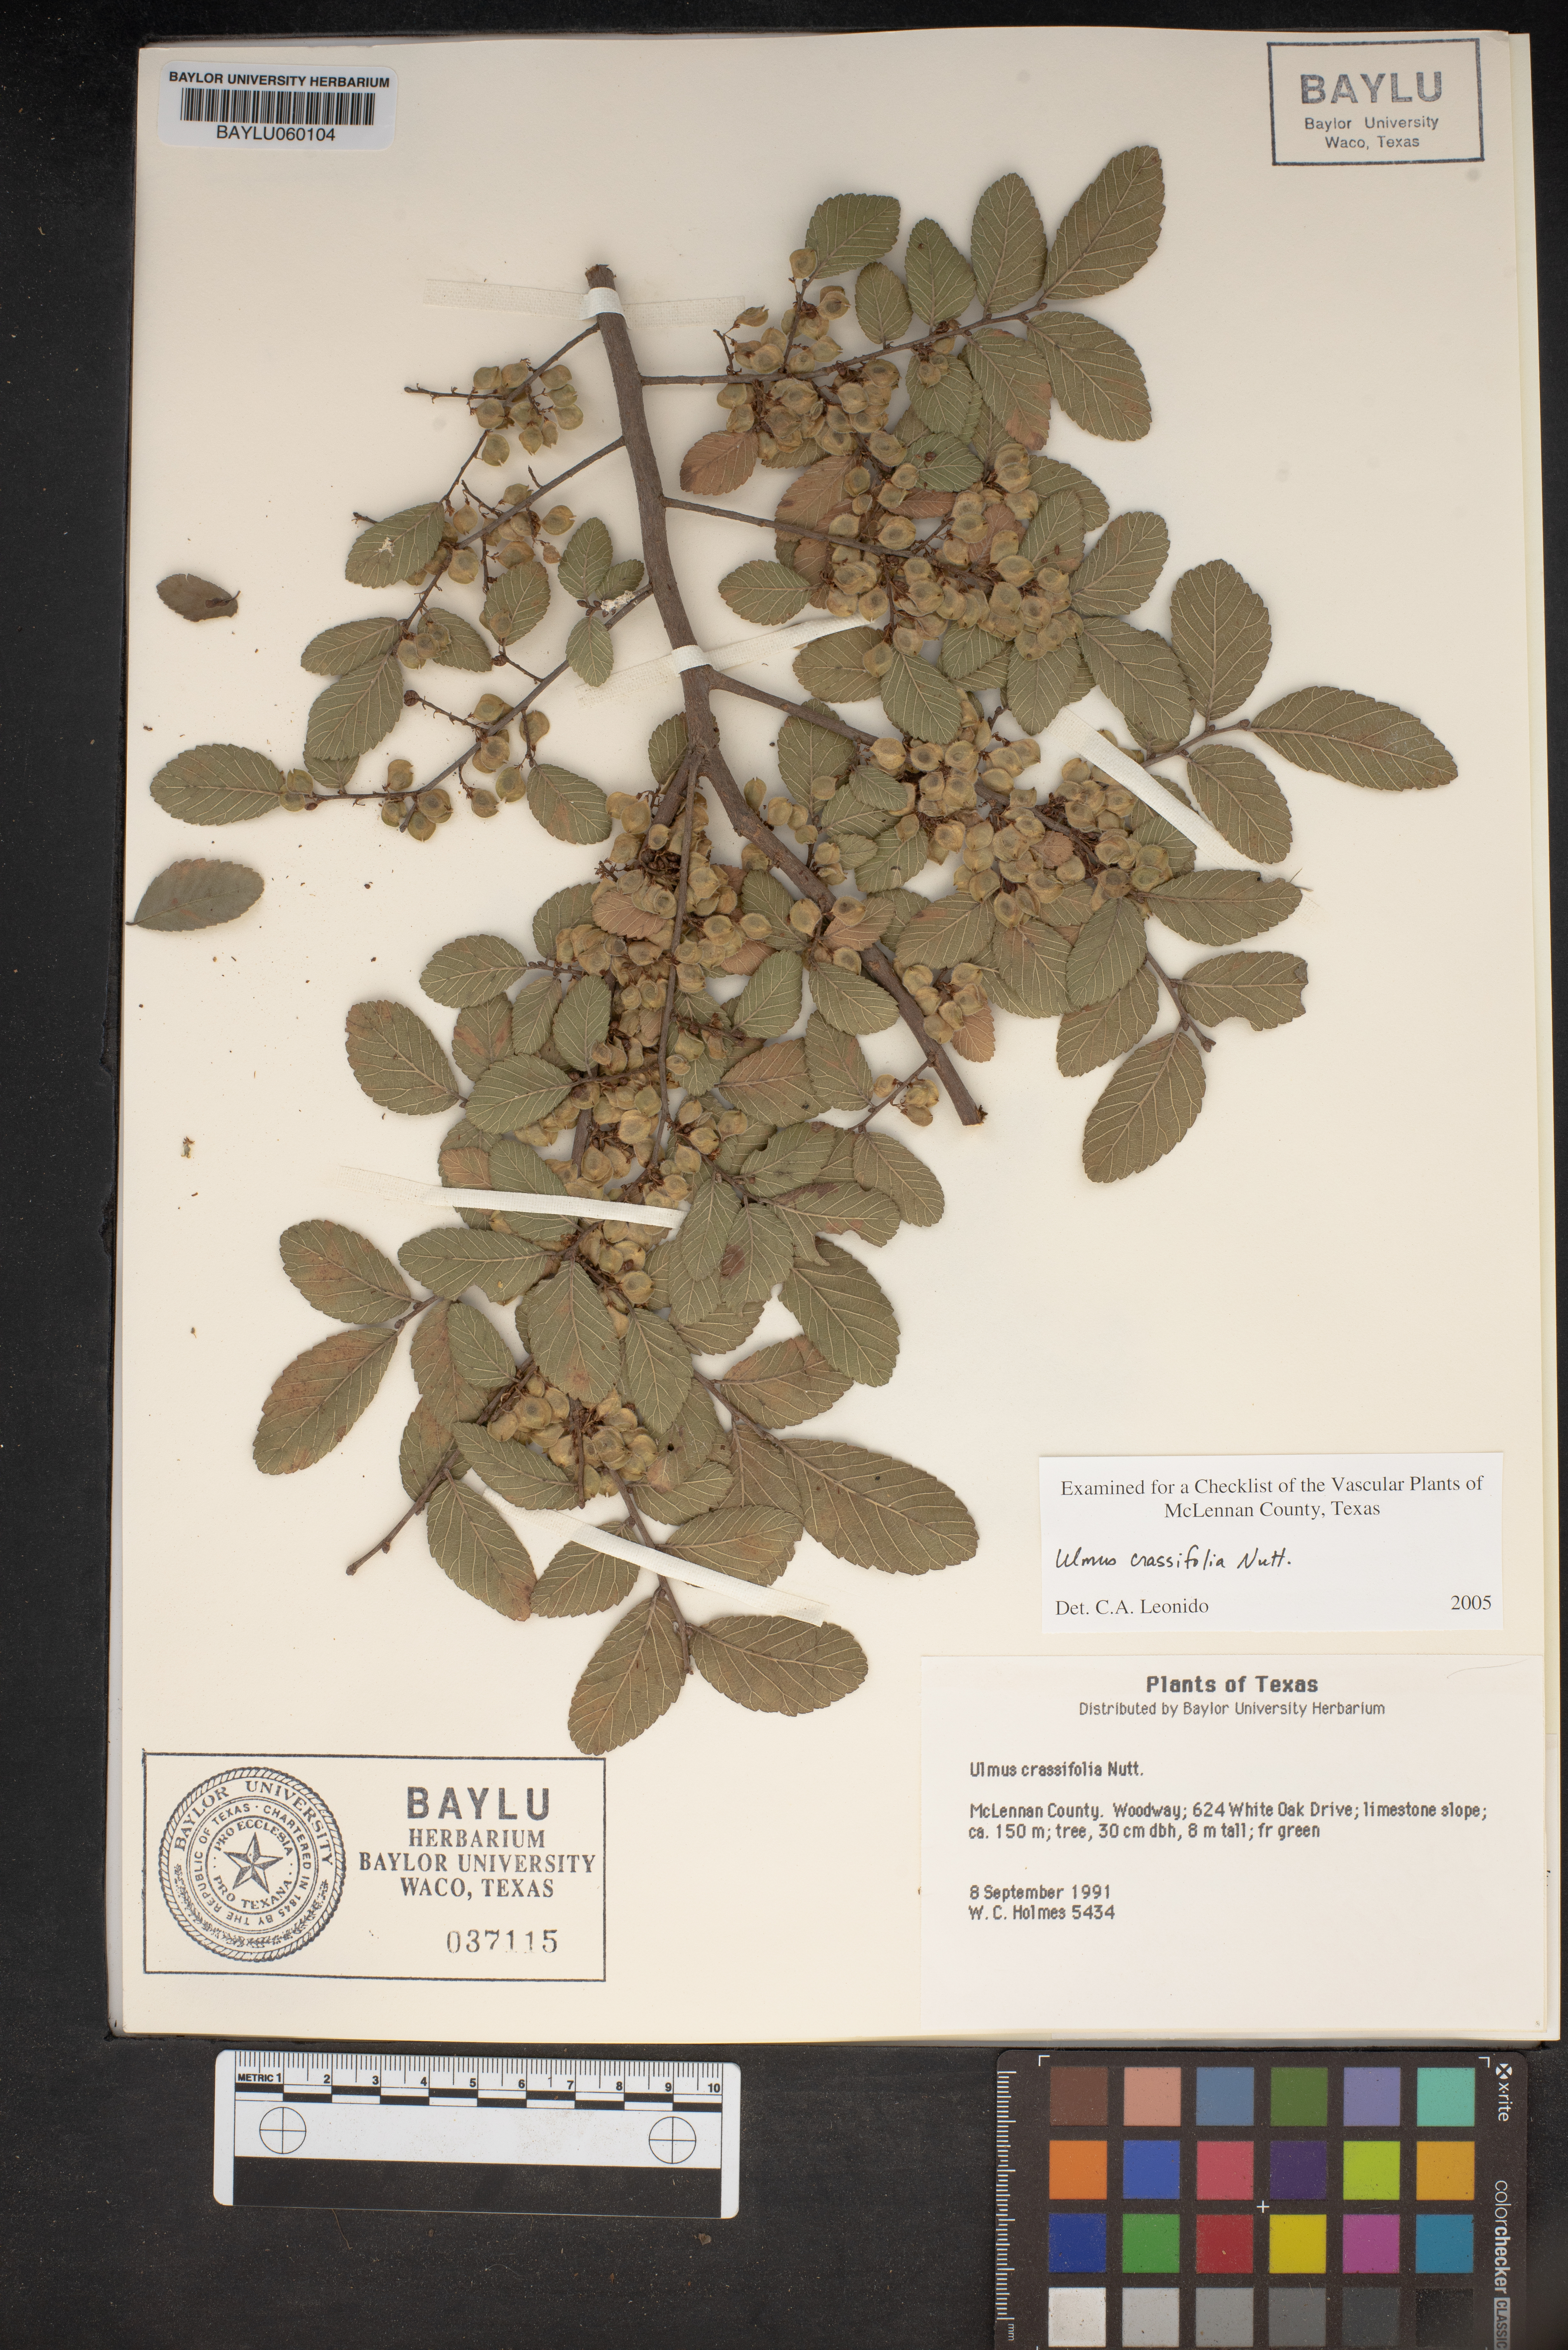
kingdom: Plantae
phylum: Tracheophyta
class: Magnoliopsida
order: Rosales
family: Ulmaceae
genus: Ulmus
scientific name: Ulmus crassifolia
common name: Basket elm
